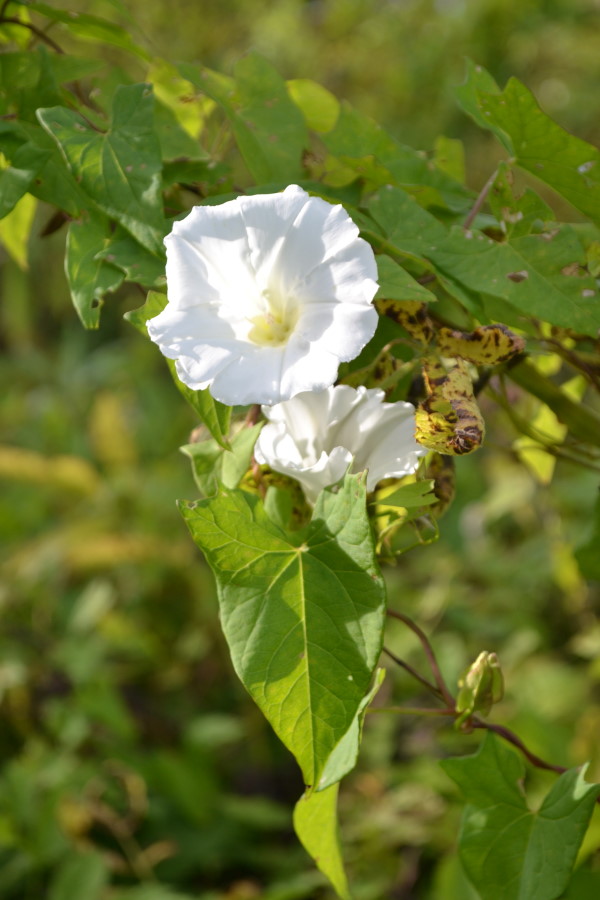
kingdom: Plantae
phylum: Tracheophyta
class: Magnoliopsida
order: Solanales
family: Convolvulaceae
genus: Calystegia
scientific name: Calystegia sepium
